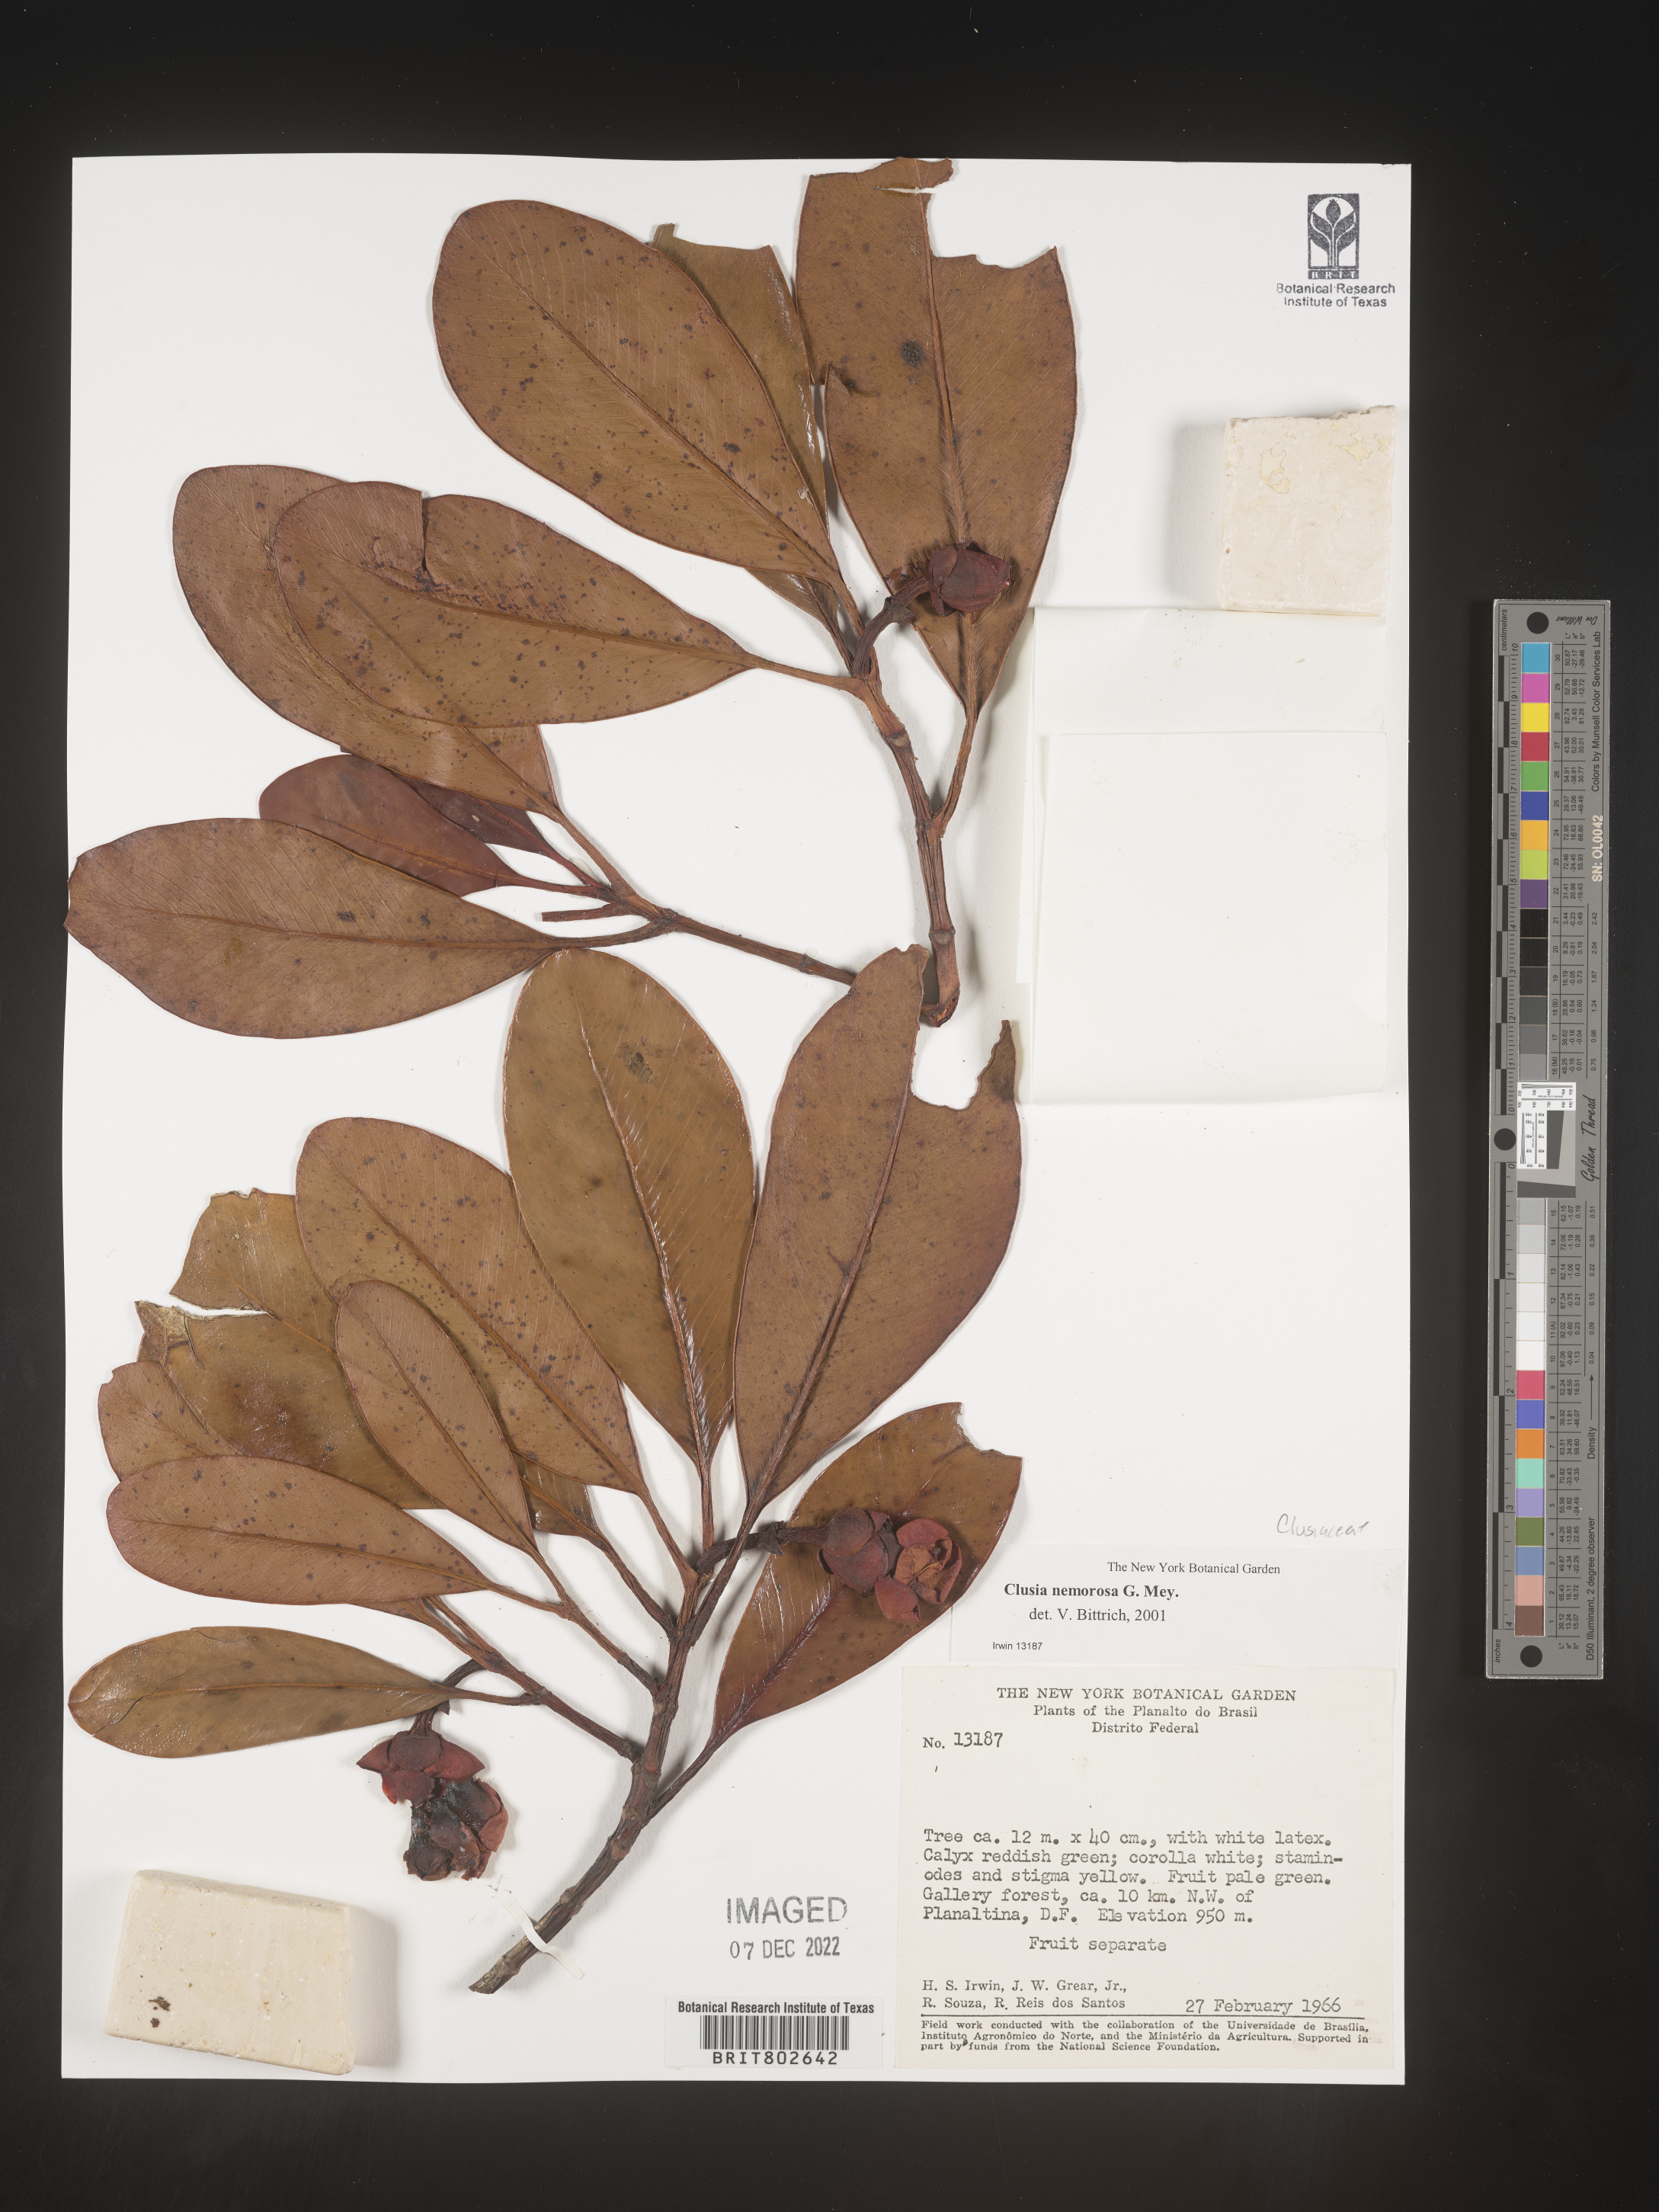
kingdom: Plantae
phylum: Tracheophyta
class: Magnoliopsida
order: Malpighiales
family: Clusiaceae
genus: Clusia
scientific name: Clusia nemorosa
